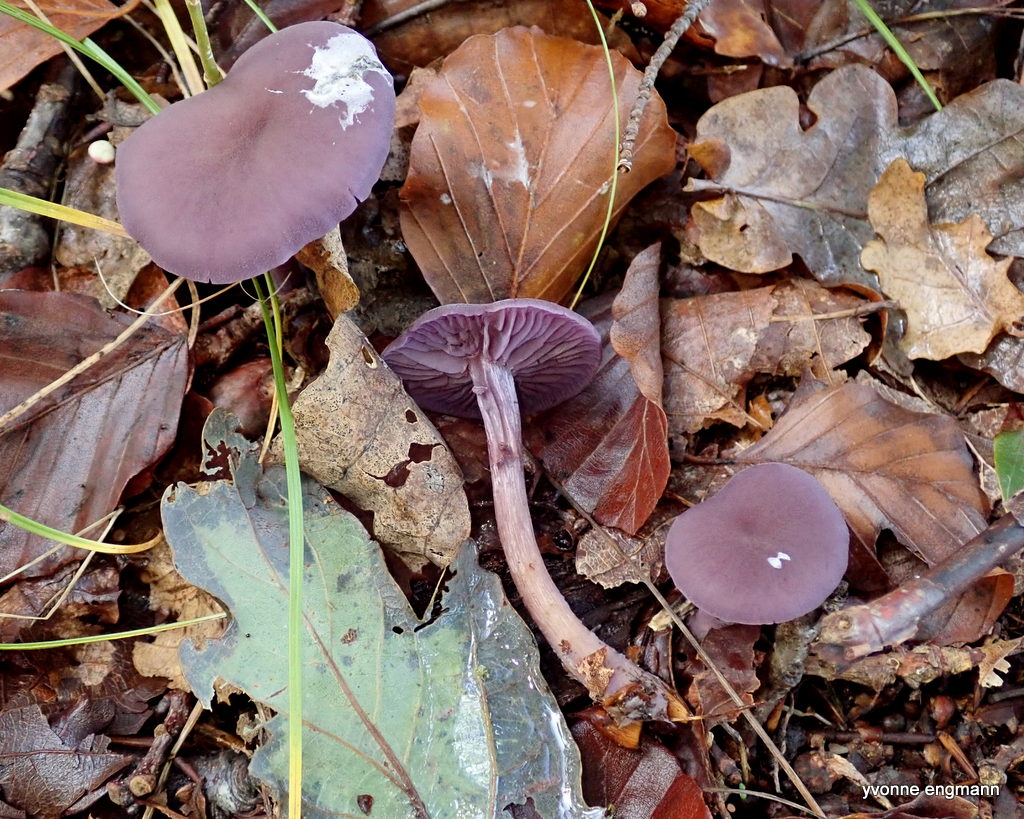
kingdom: Fungi
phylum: Basidiomycota
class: Agaricomycetes
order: Agaricales
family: Hydnangiaceae
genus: Laccaria
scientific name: Laccaria amethystina
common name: violet ametysthat
